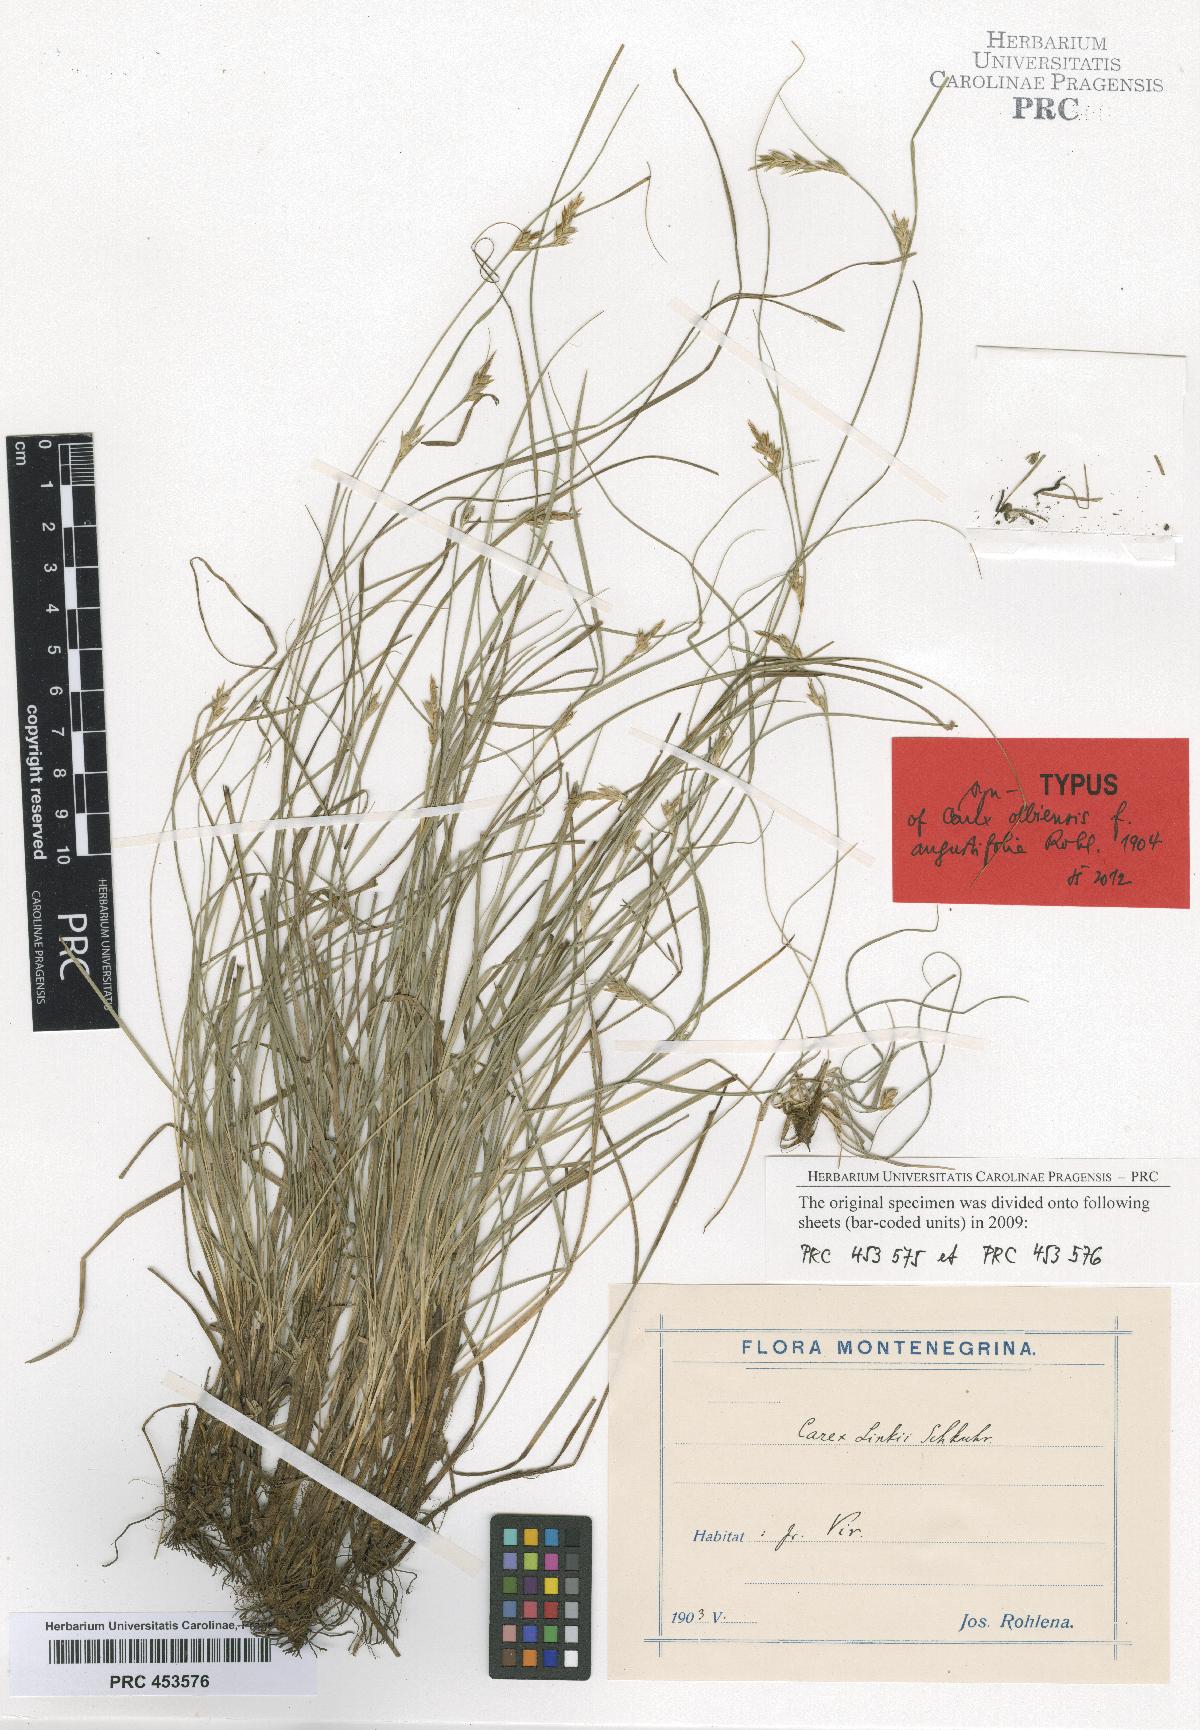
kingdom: Plantae
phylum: Tracheophyta
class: Liliopsida
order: Poales
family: Cyperaceae
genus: Carex
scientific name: Carex distachya
